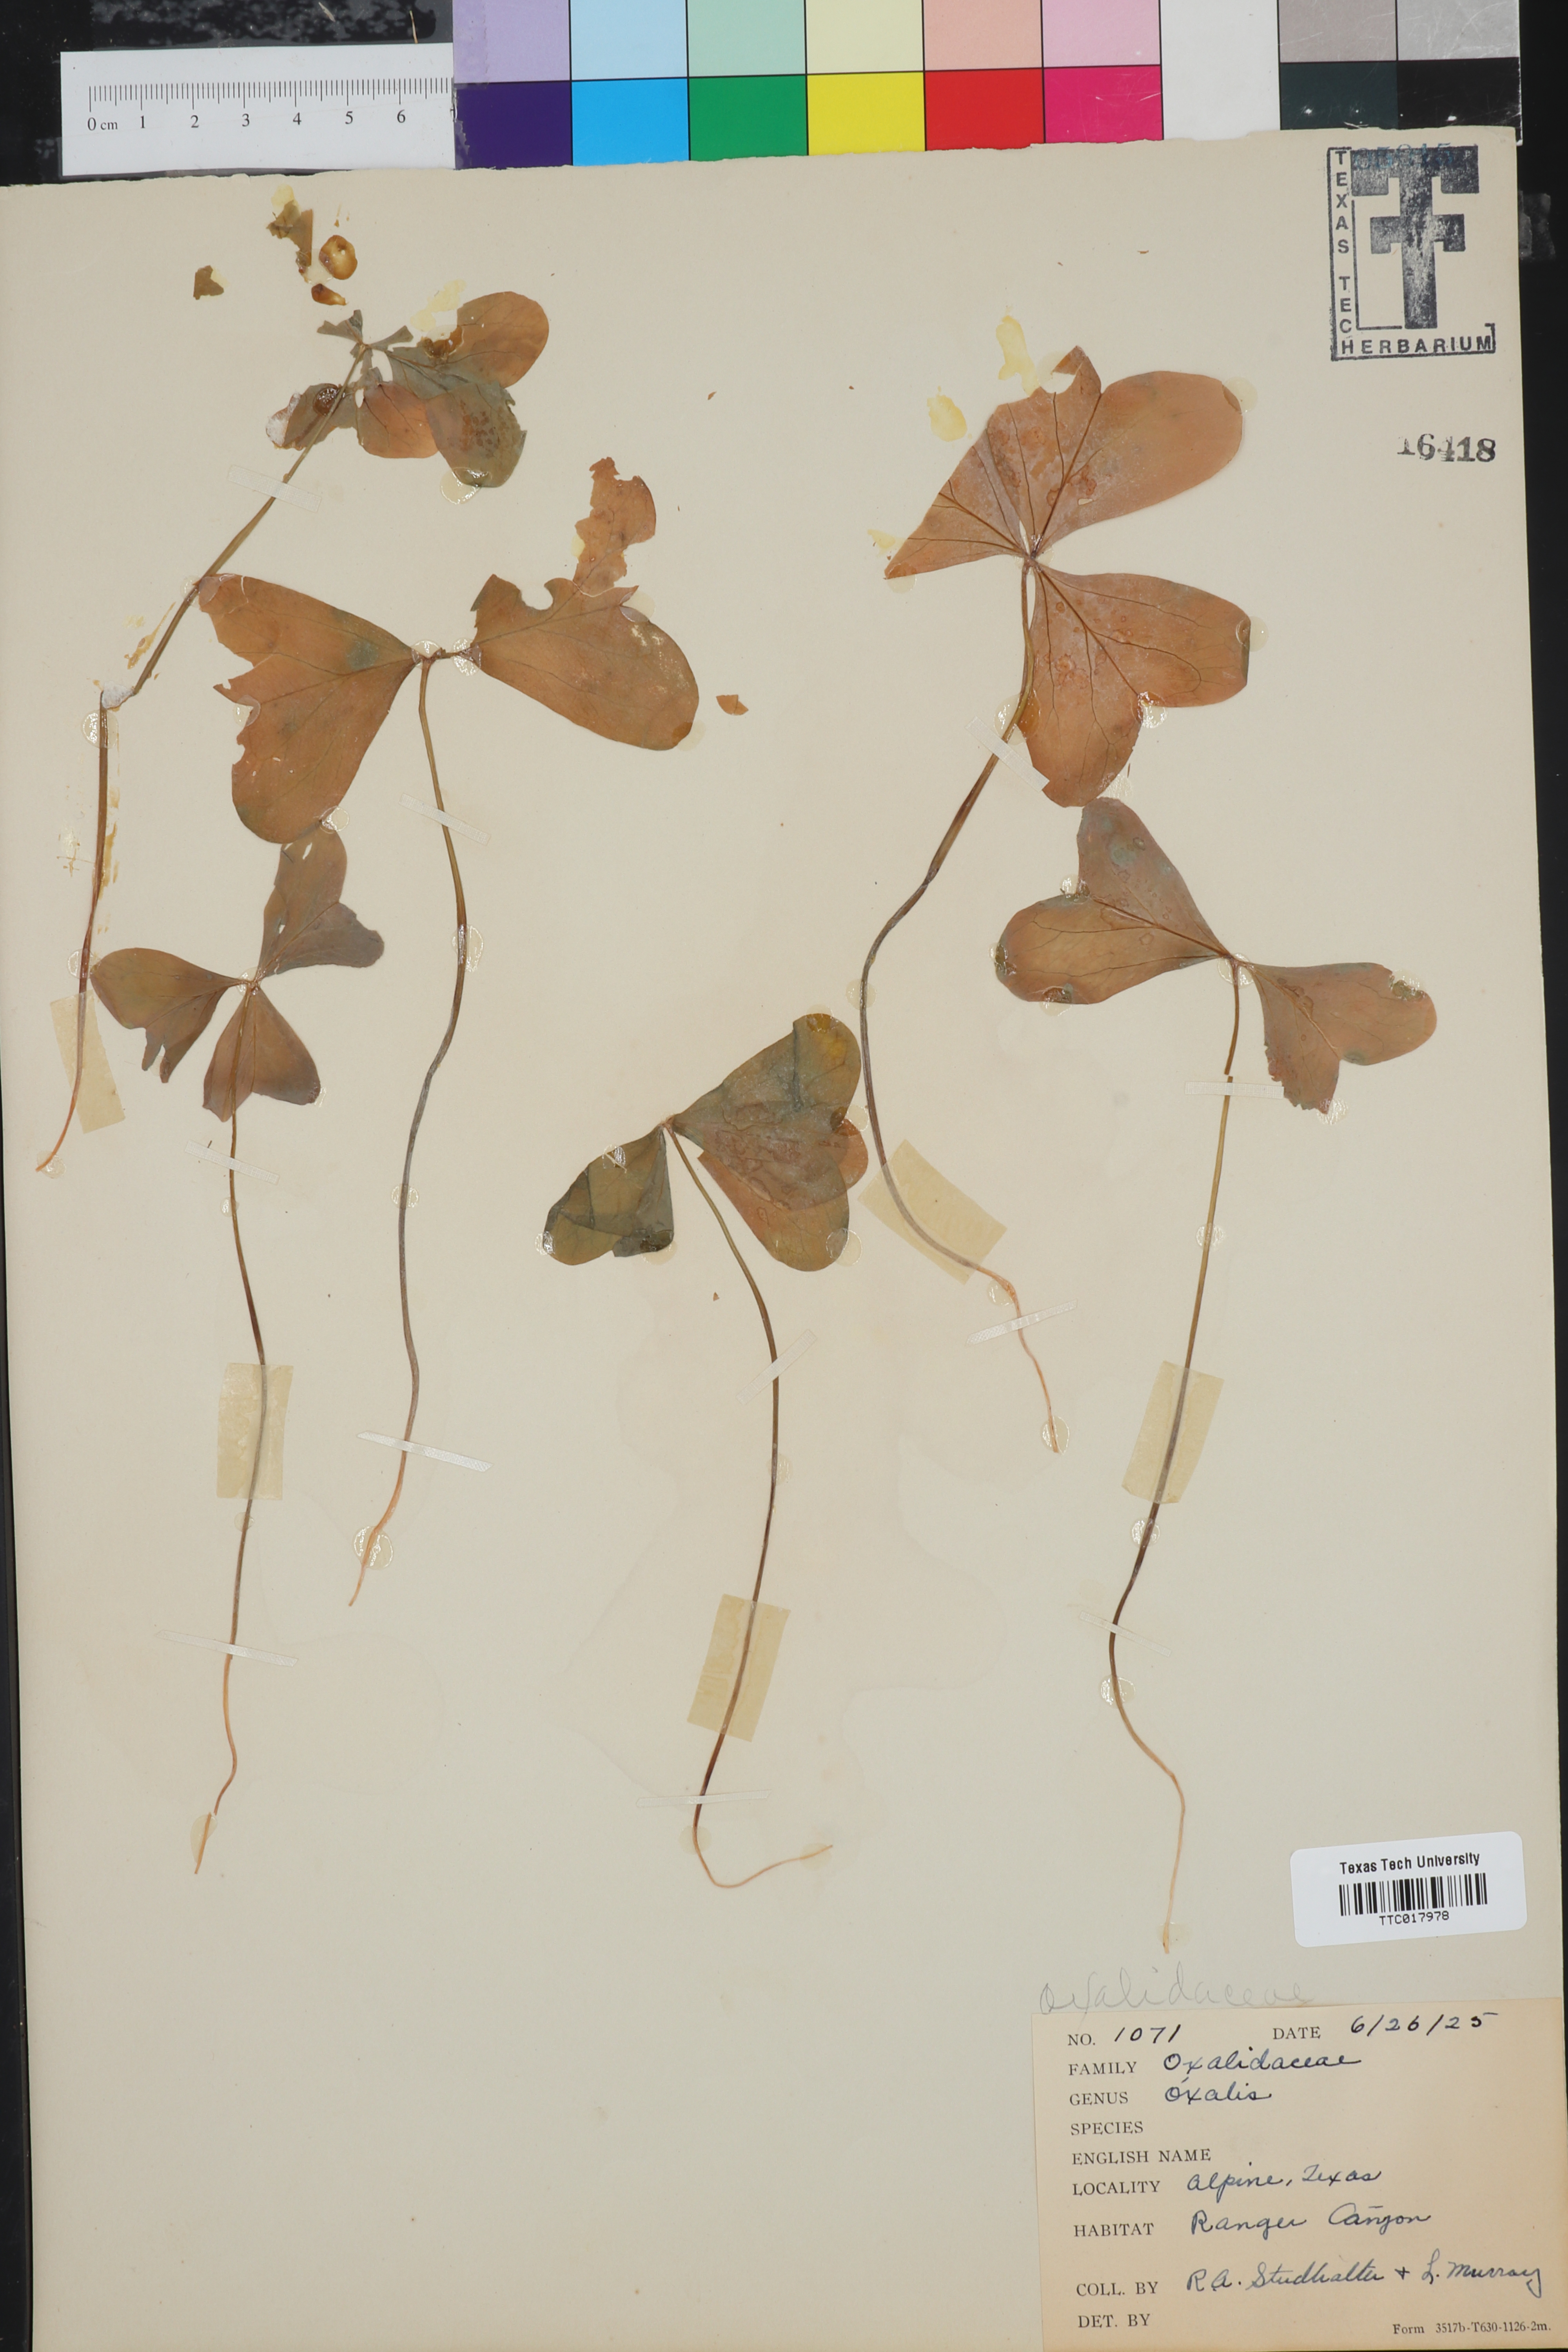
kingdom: Plantae
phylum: Tracheophyta
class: Magnoliopsida
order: Oxalidales
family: Oxalidaceae
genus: Oxalis
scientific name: Oxalis
